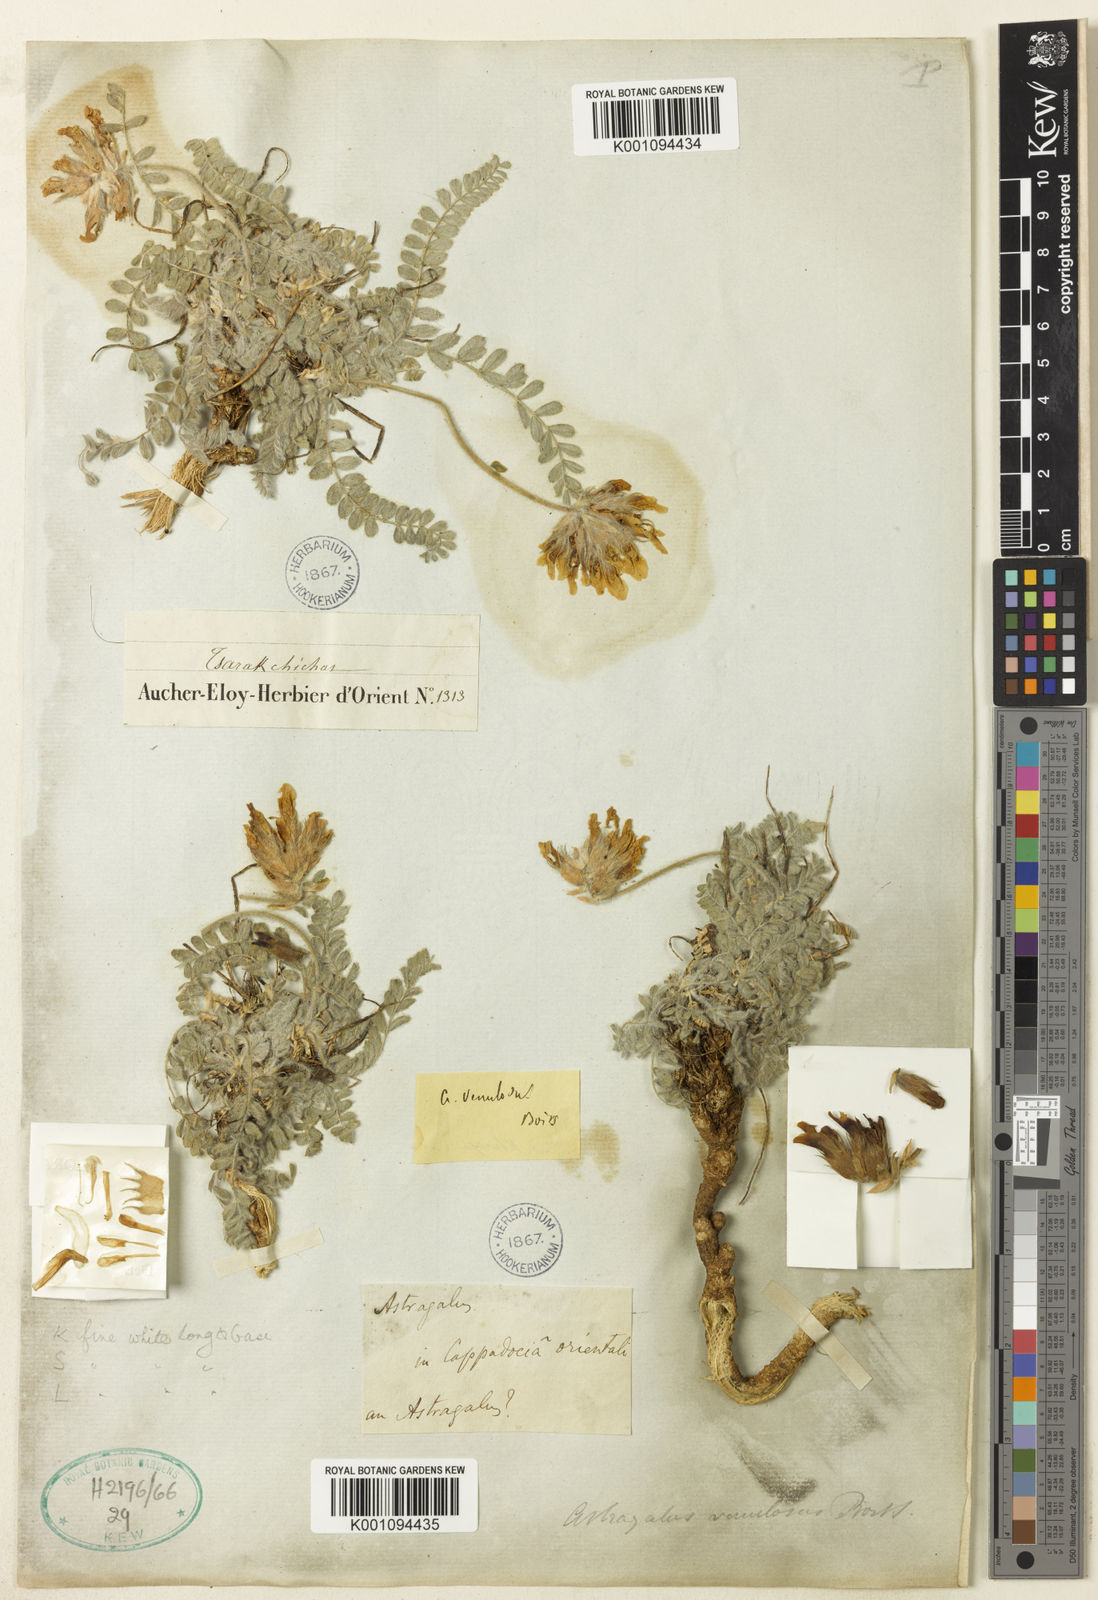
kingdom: Plantae
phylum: Tracheophyta
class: Magnoliopsida
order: Fabales
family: Fabaceae
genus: Astragalus
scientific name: Astragalus
